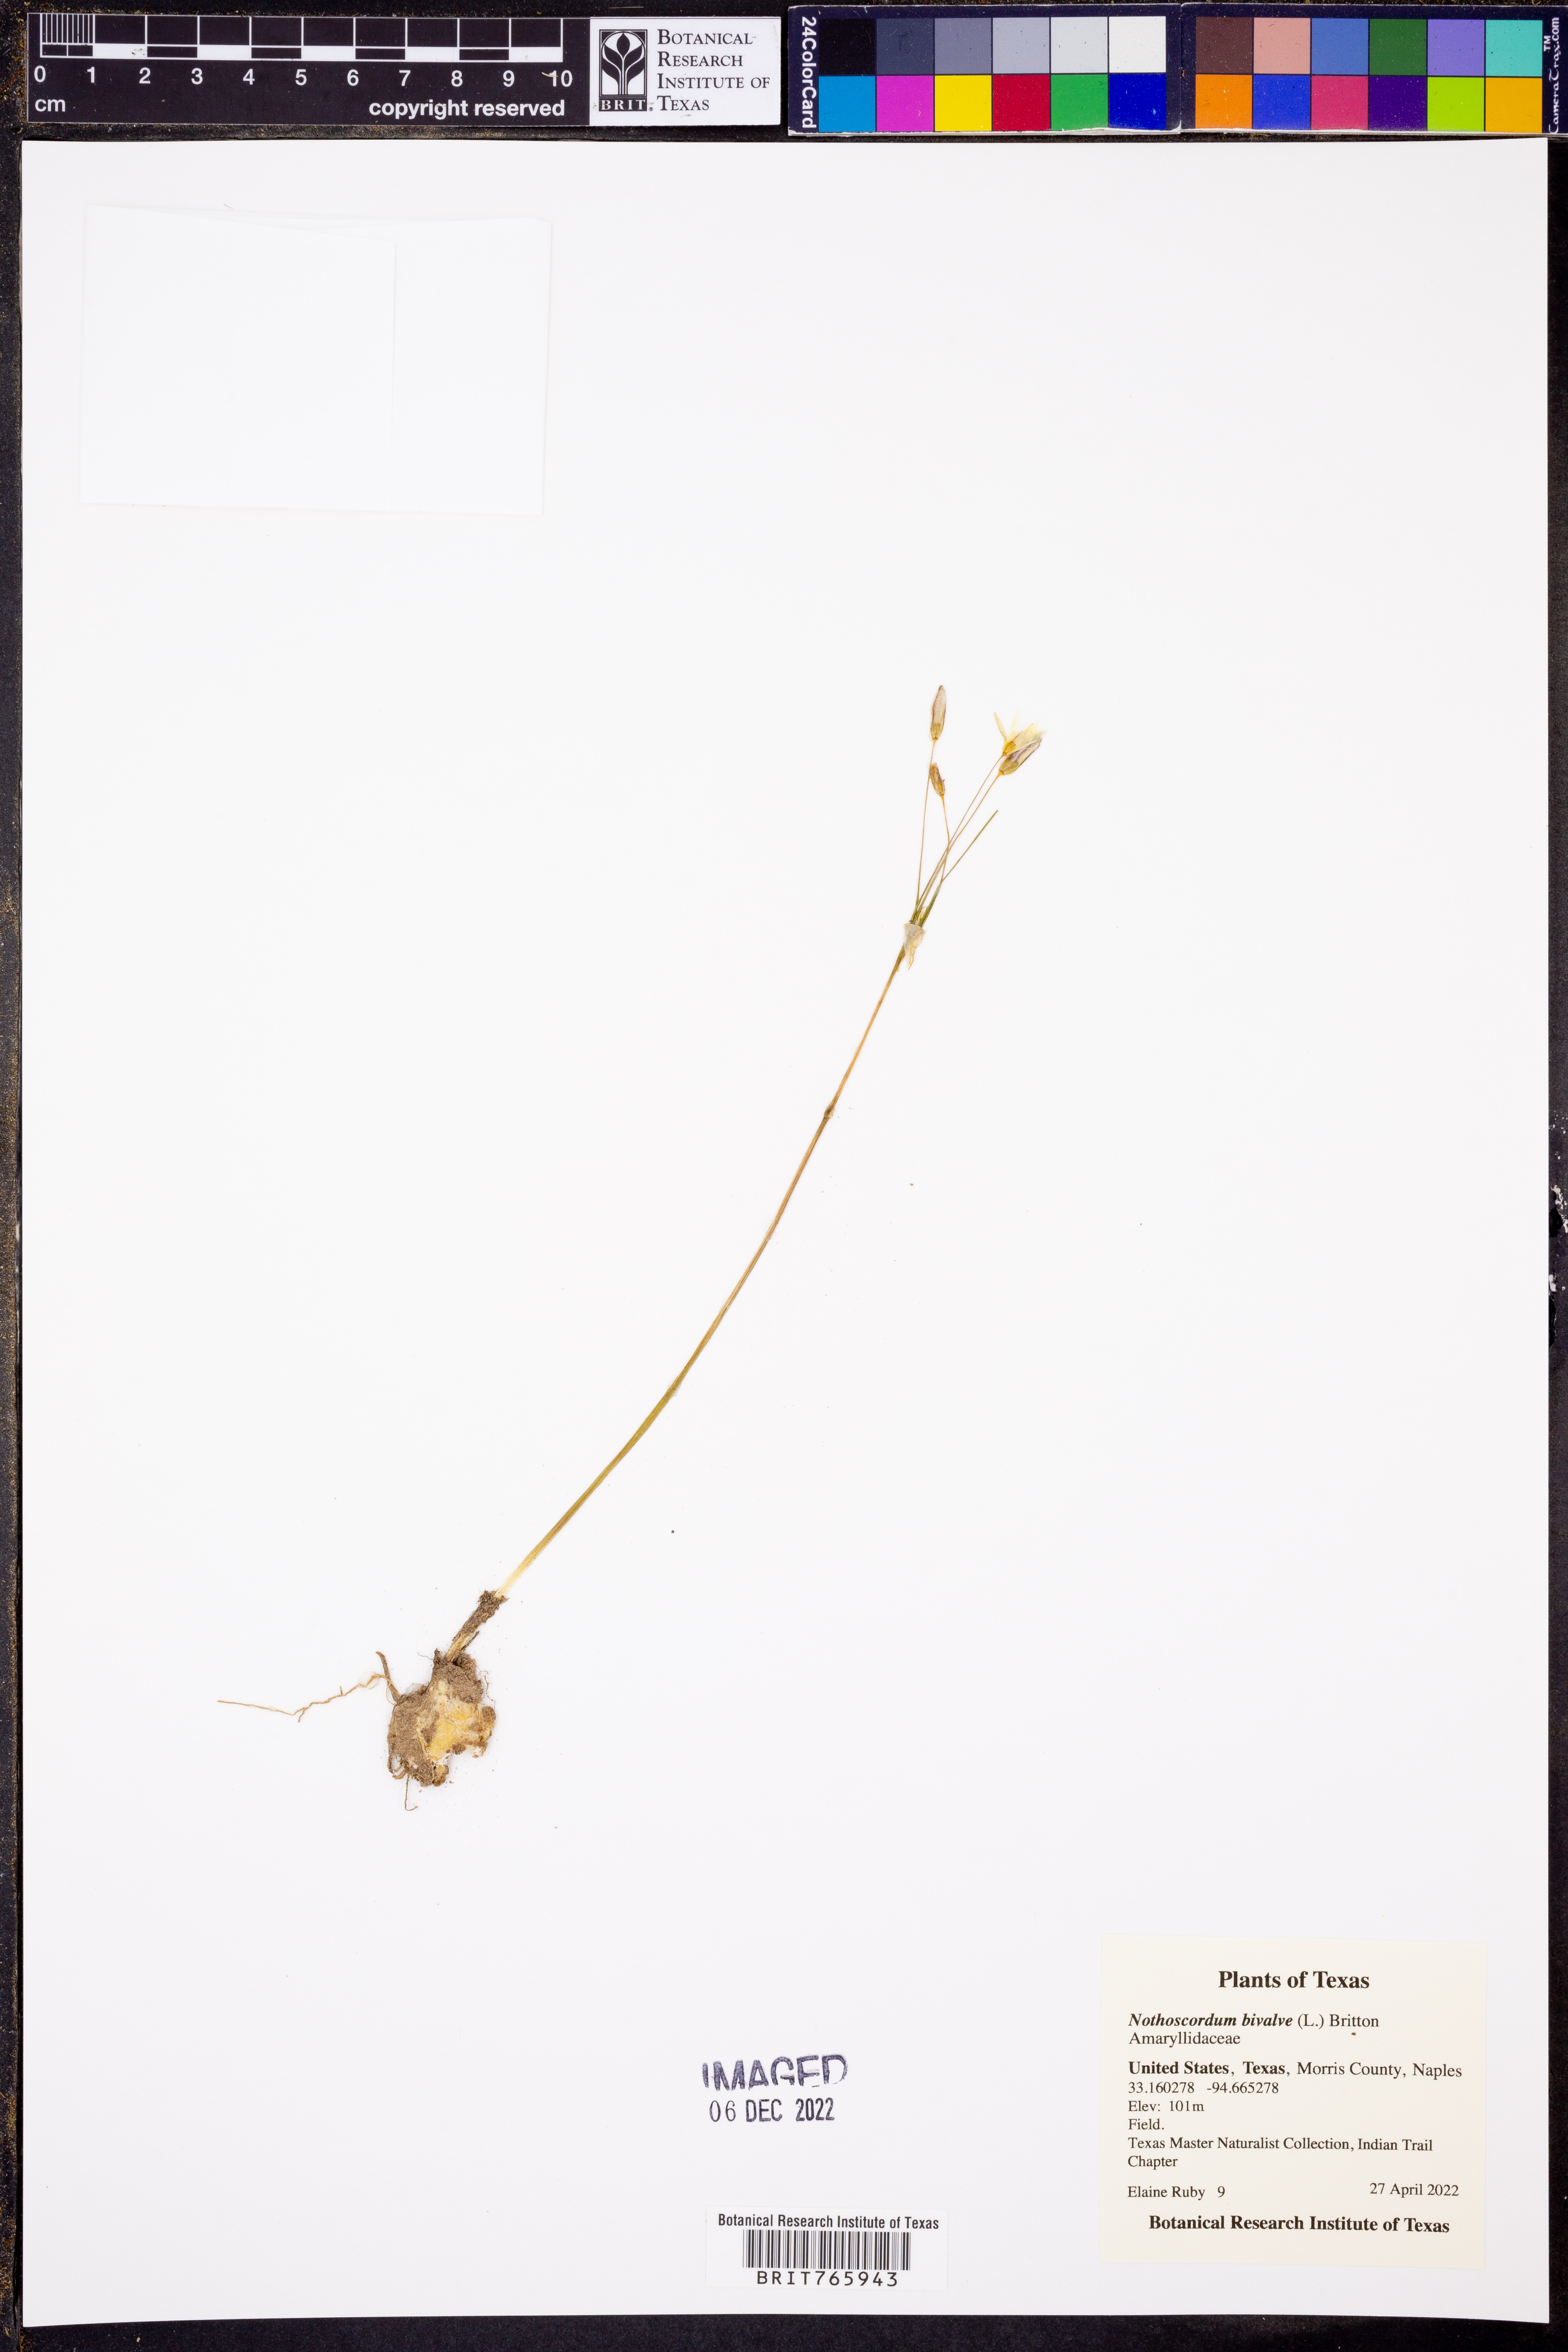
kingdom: Plantae
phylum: Tracheophyta
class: Liliopsida
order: Asparagales
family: Amaryllidaceae
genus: Nothoscordum
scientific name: Nothoscordum bivalve
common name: Crow-poison
